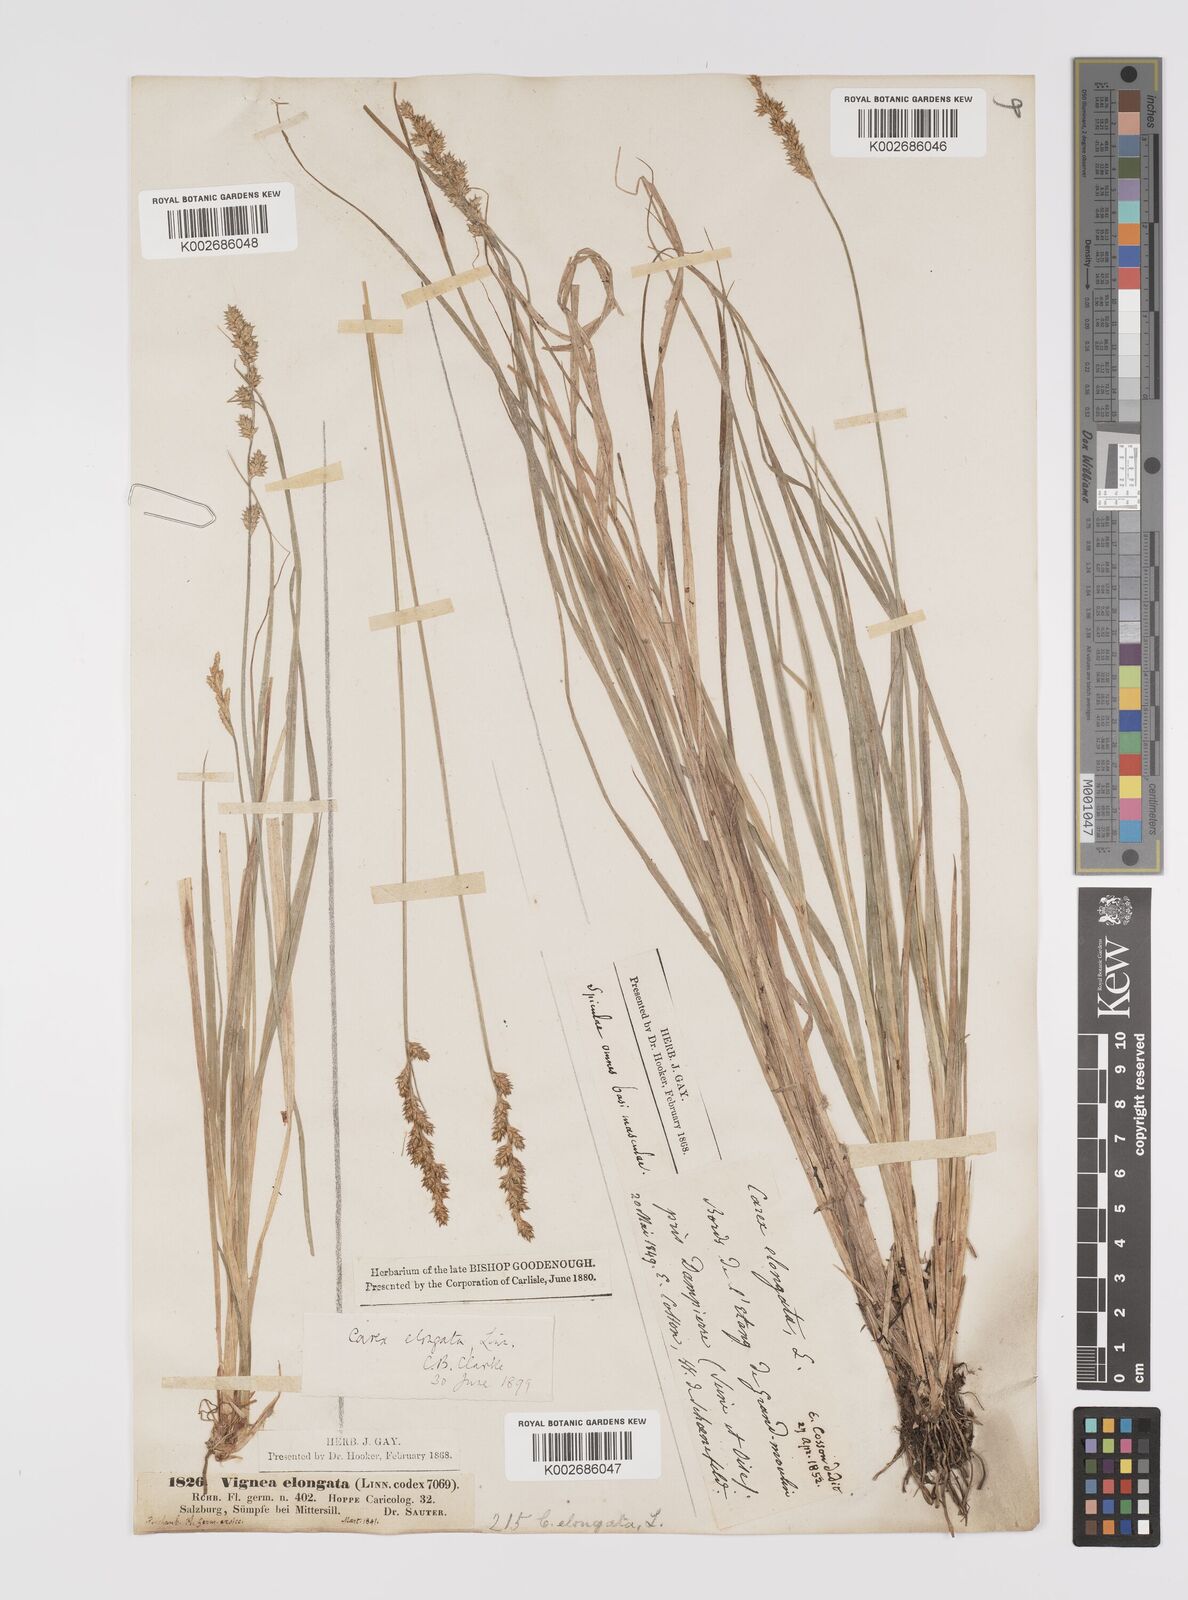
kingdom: Plantae
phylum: Tracheophyta
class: Liliopsida
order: Poales
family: Cyperaceae
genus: Carex
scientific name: Carex elongata
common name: Elongated sedge
